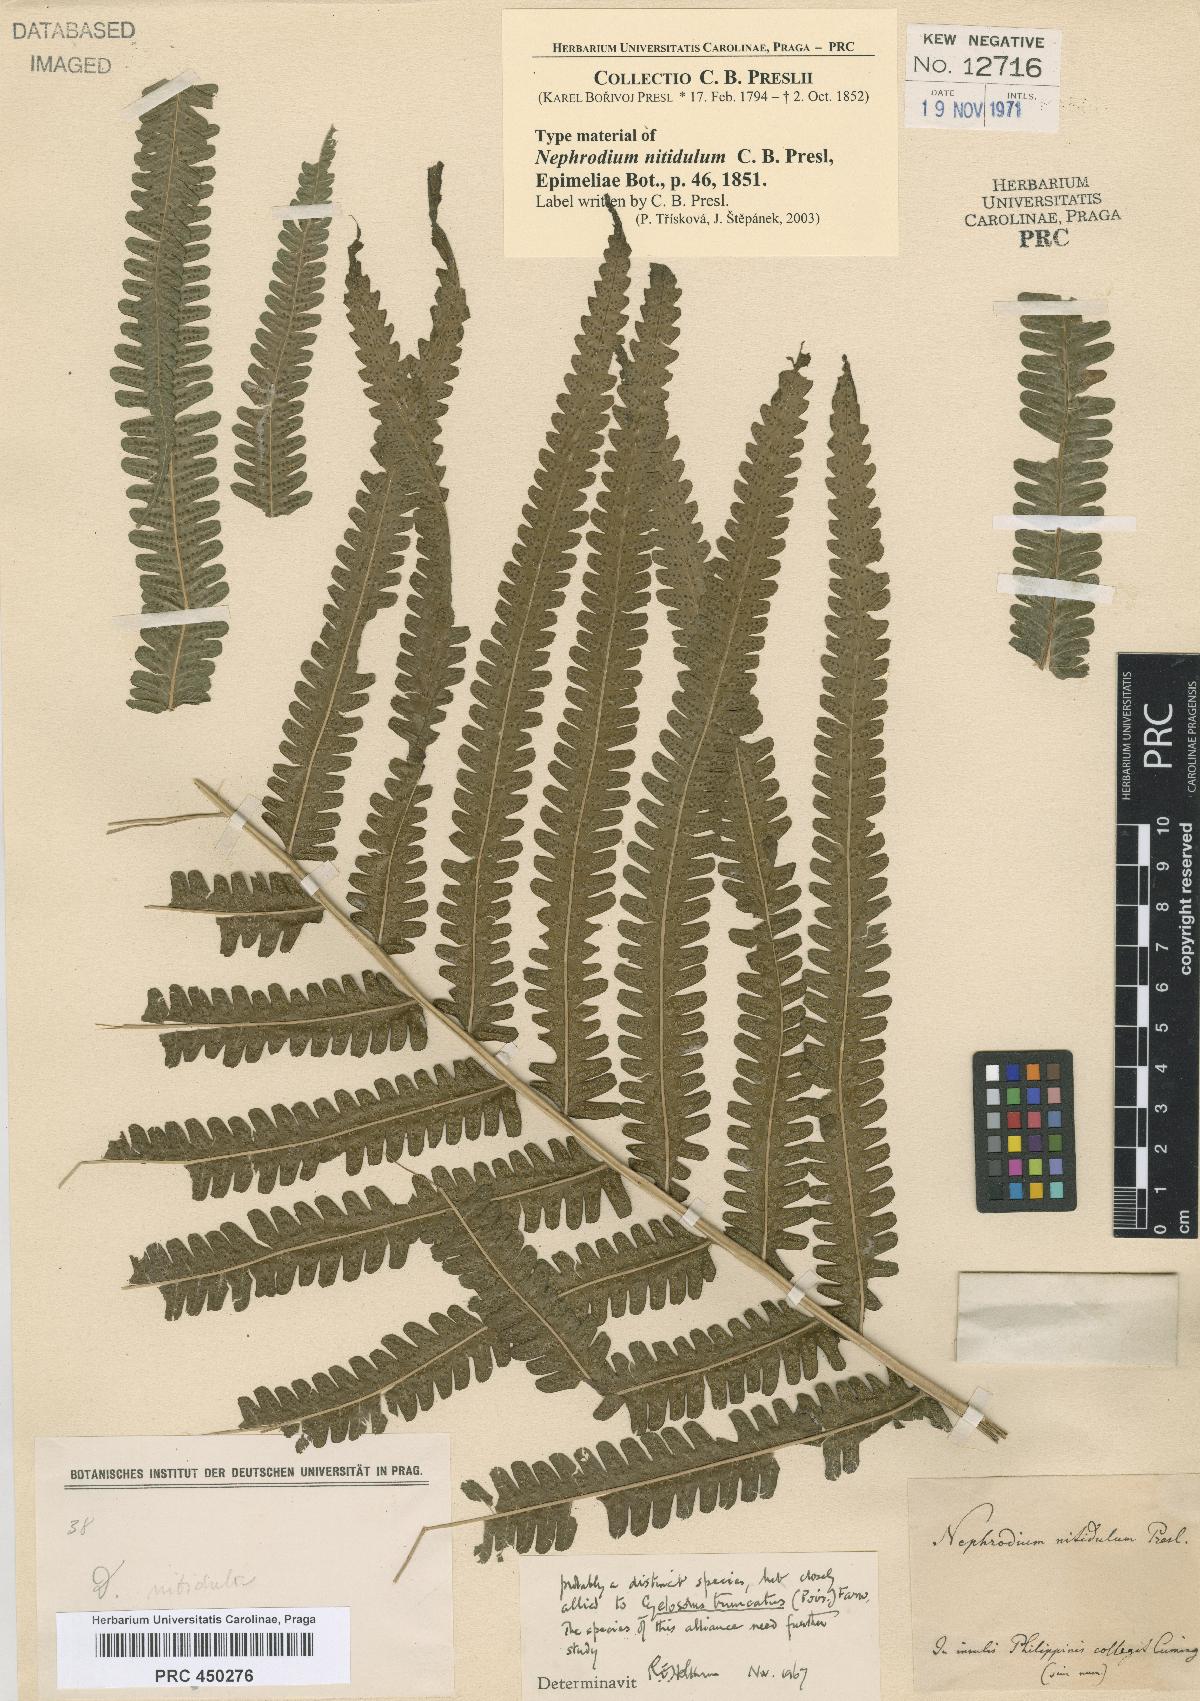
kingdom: Plantae
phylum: Tracheophyta
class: Polypodiopsida
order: Polypodiales
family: Thelypteridaceae
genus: Reholttumia
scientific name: Reholttumia nitidula
